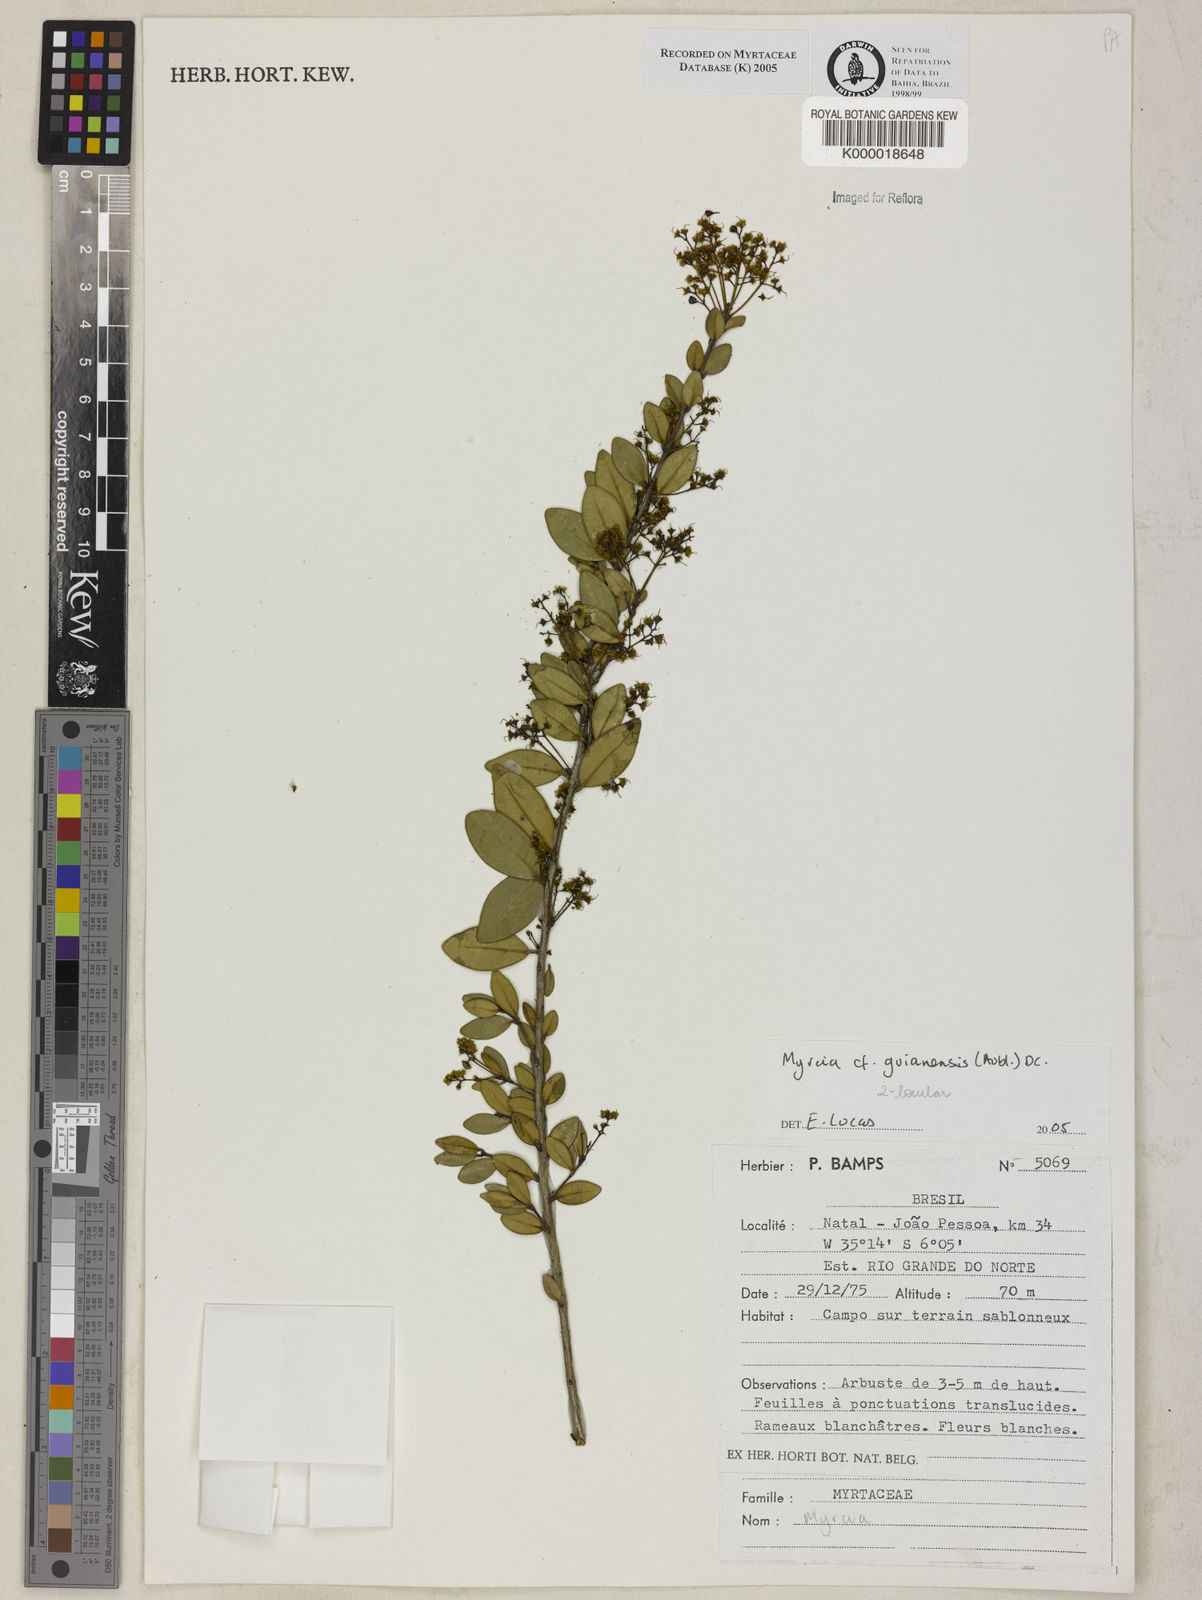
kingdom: Plantae
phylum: Tracheophyta
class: Magnoliopsida
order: Myrtales
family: Myrtaceae
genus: Myrcia
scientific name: Myrcia
